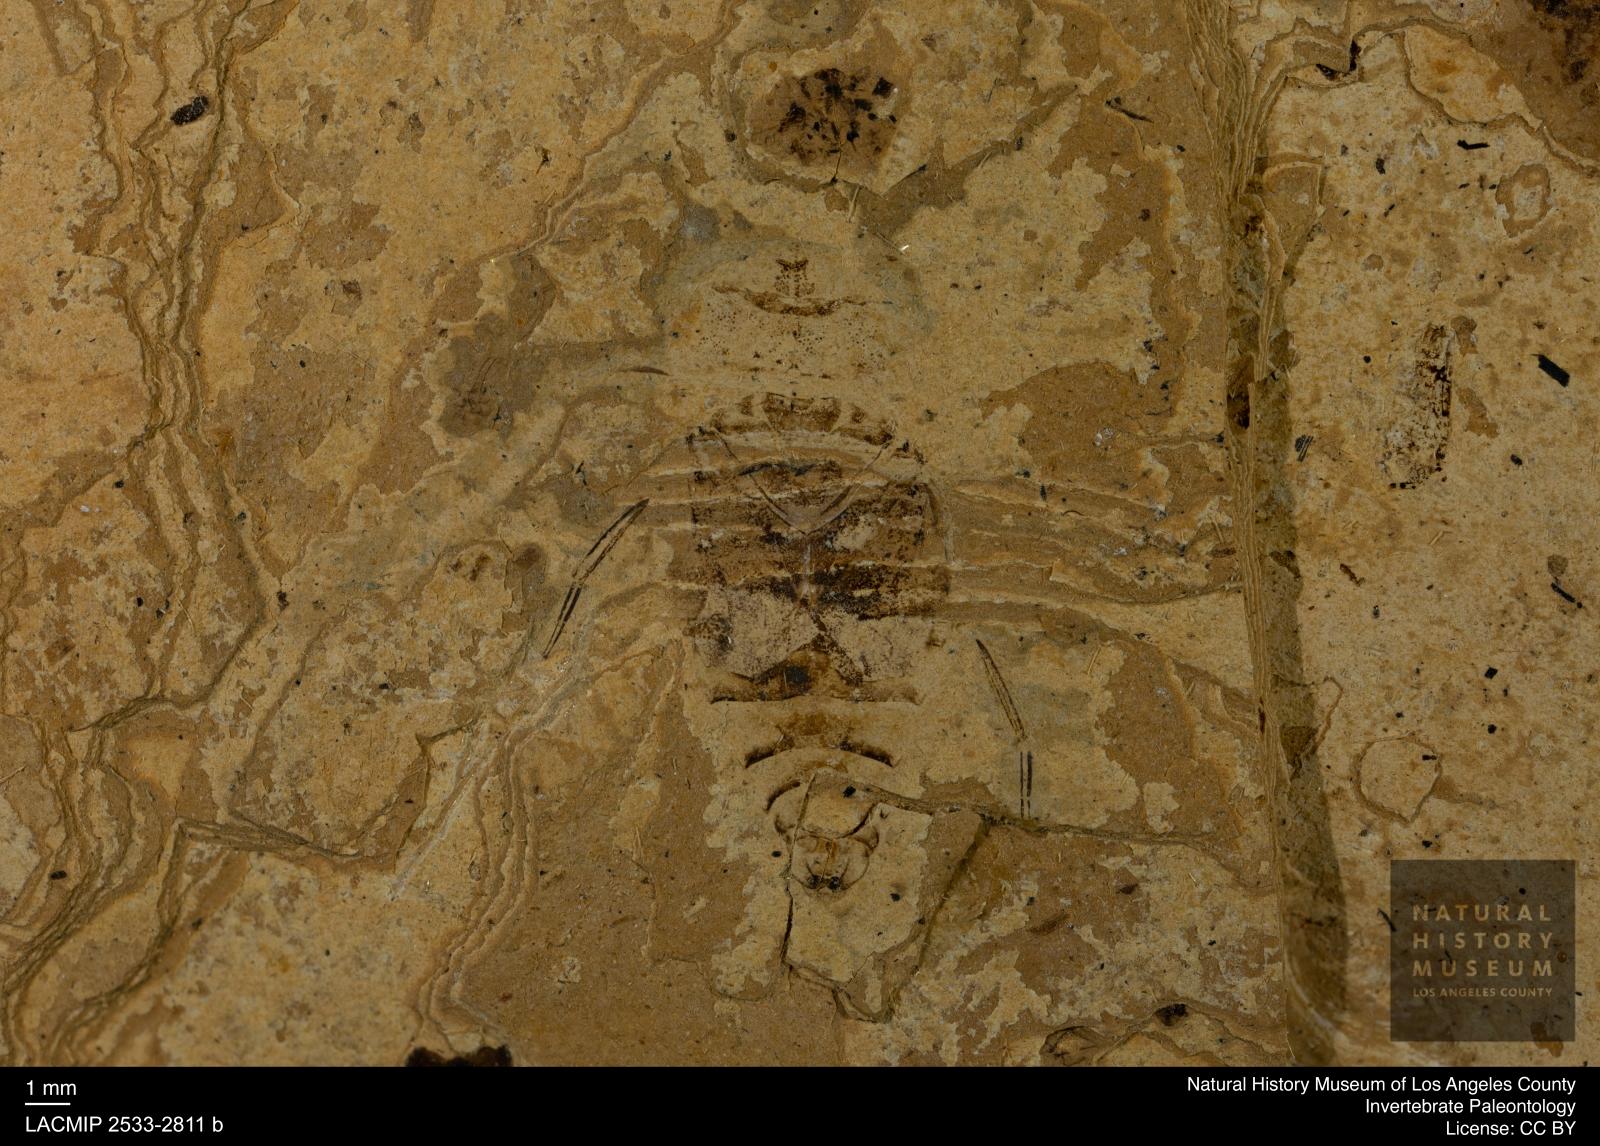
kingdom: Animalia
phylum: Arthropoda
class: Insecta
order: Hemiptera
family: Naucoridae
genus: Naucoris
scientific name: Naucoris rottensis
